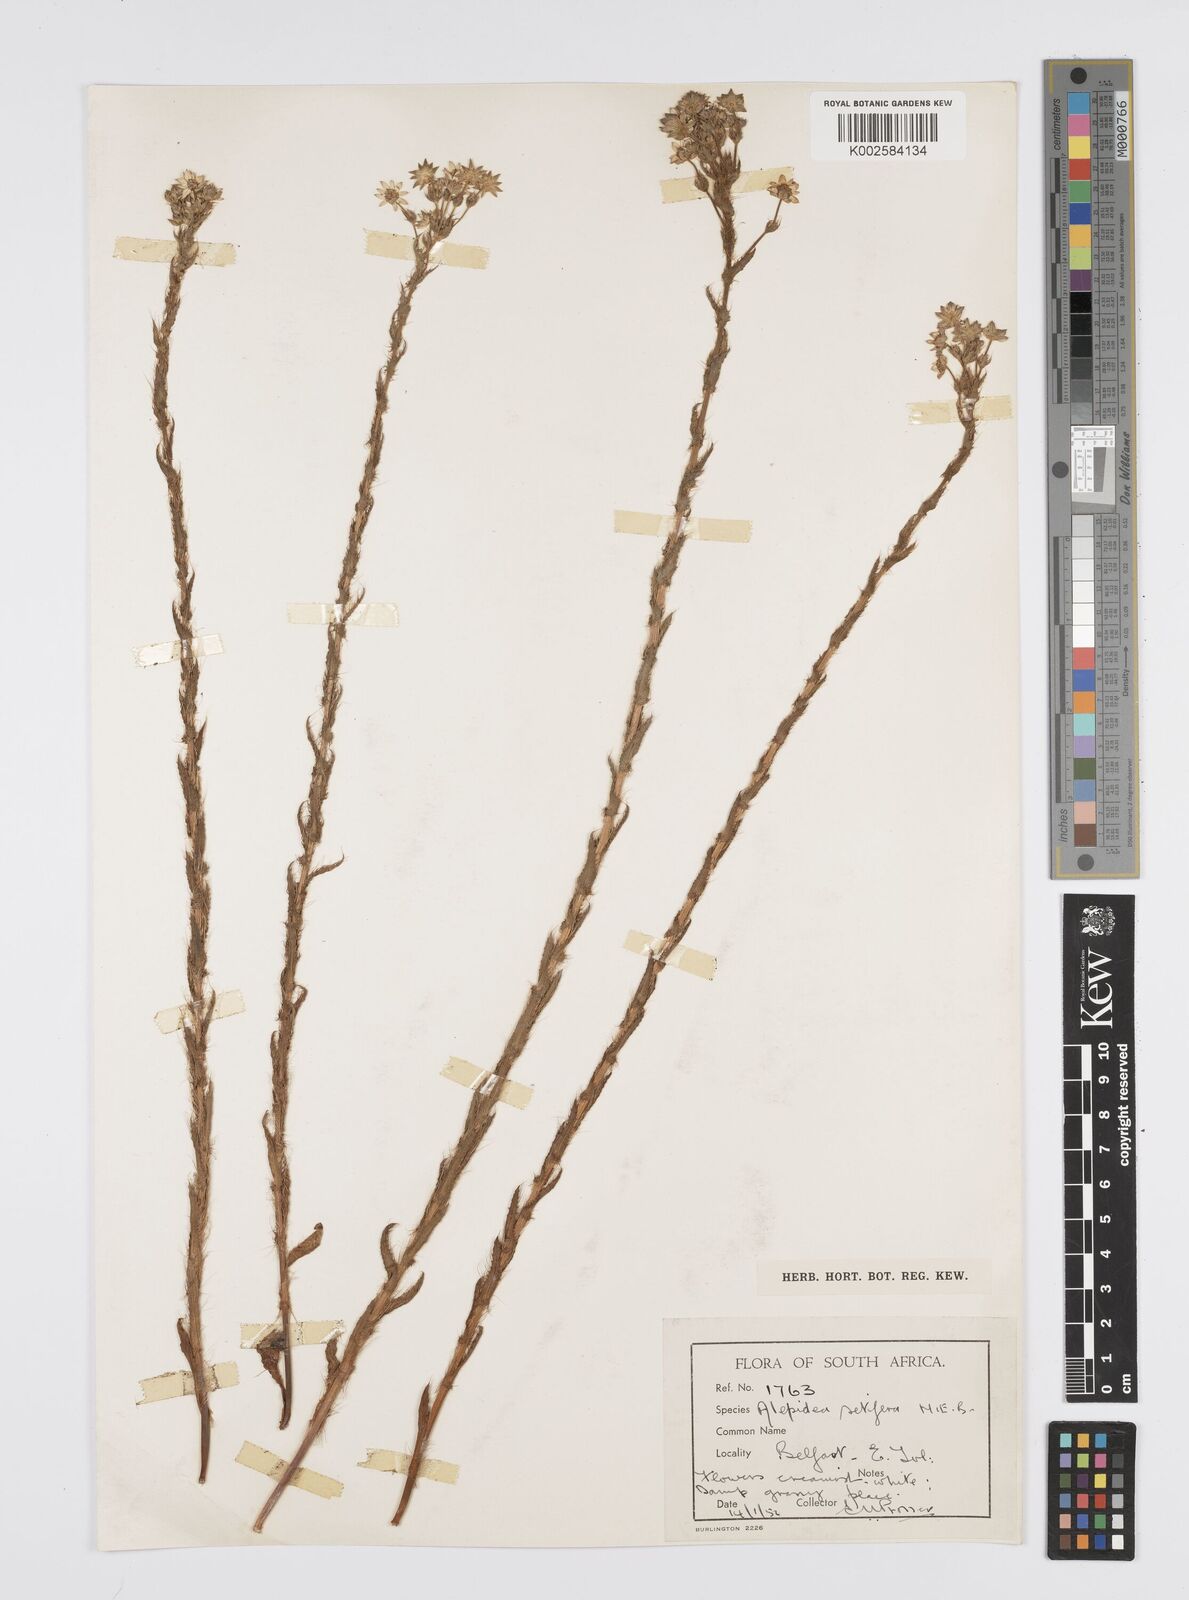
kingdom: Plantae
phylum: Tracheophyta
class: Magnoliopsida
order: Apiales
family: Apiaceae
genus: Alepidea
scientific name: Alepidea setifera
